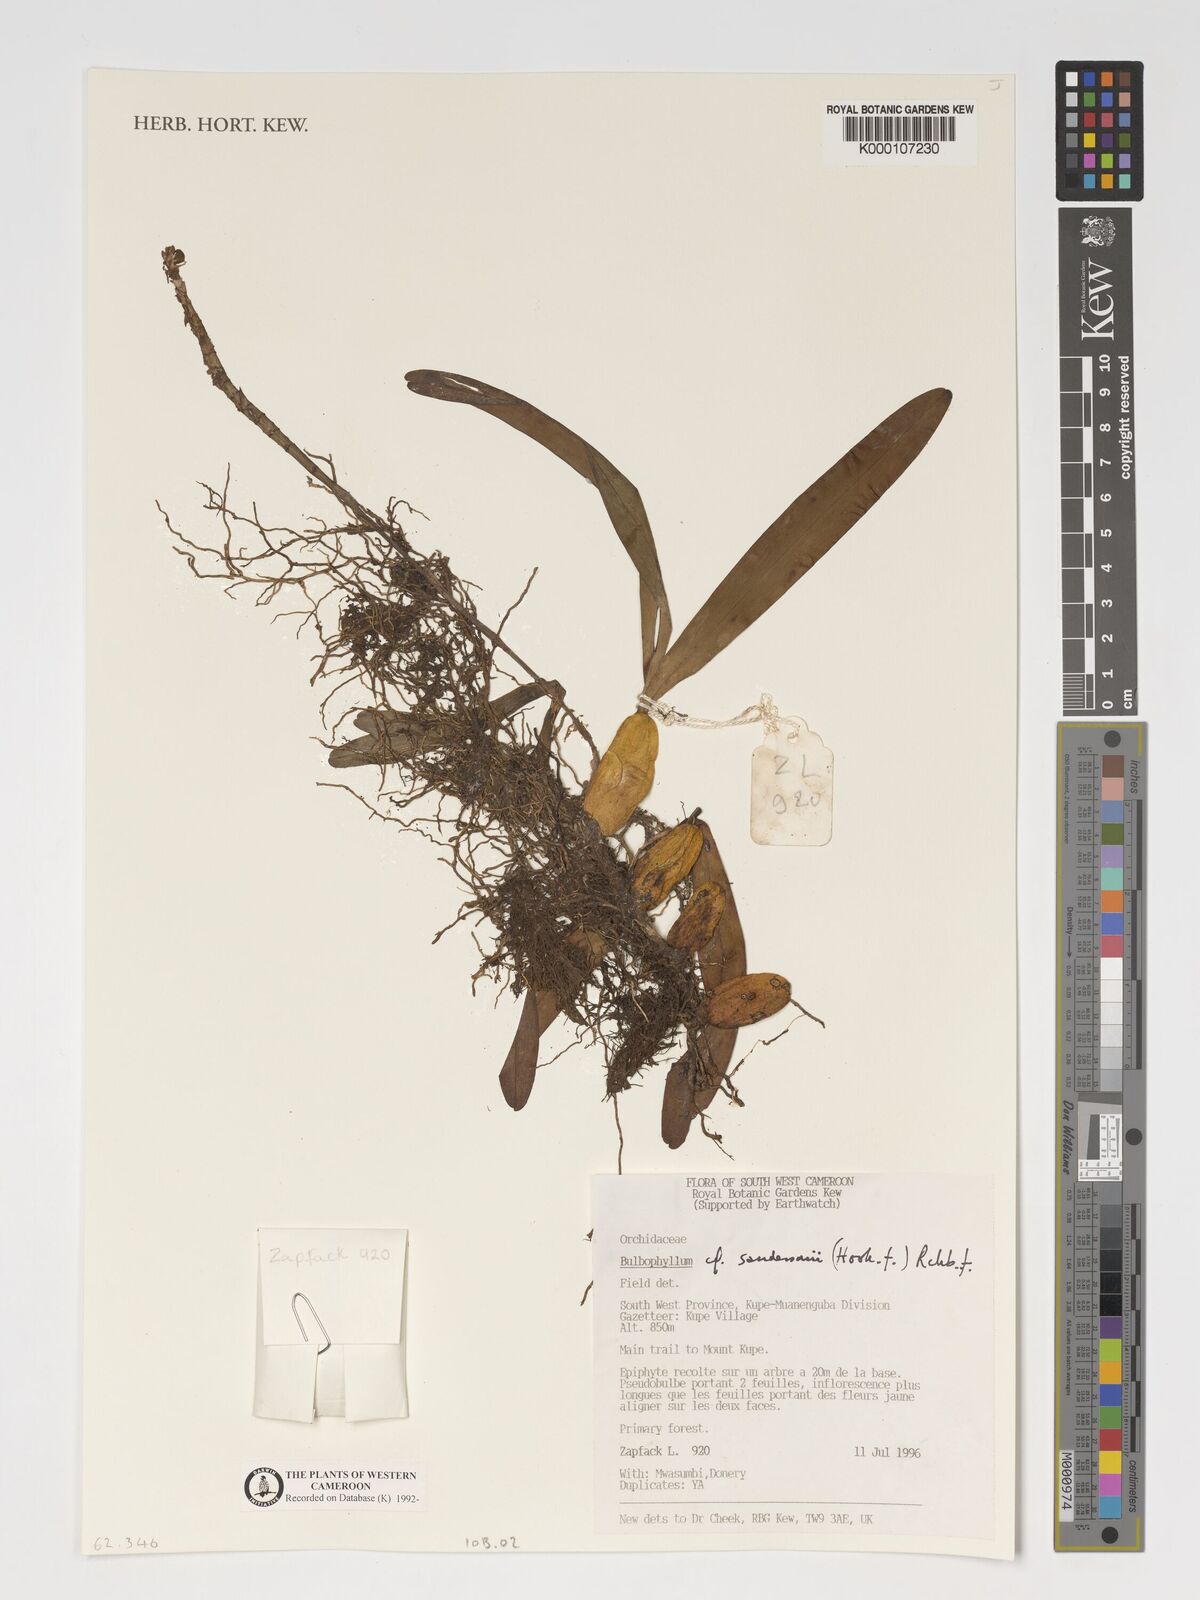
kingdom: Plantae
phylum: Tracheophyta
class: Liliopsida
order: Asparagales
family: Orchidaceae
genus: Bulbophyllum
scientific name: Bulbophyllum sandersonii
